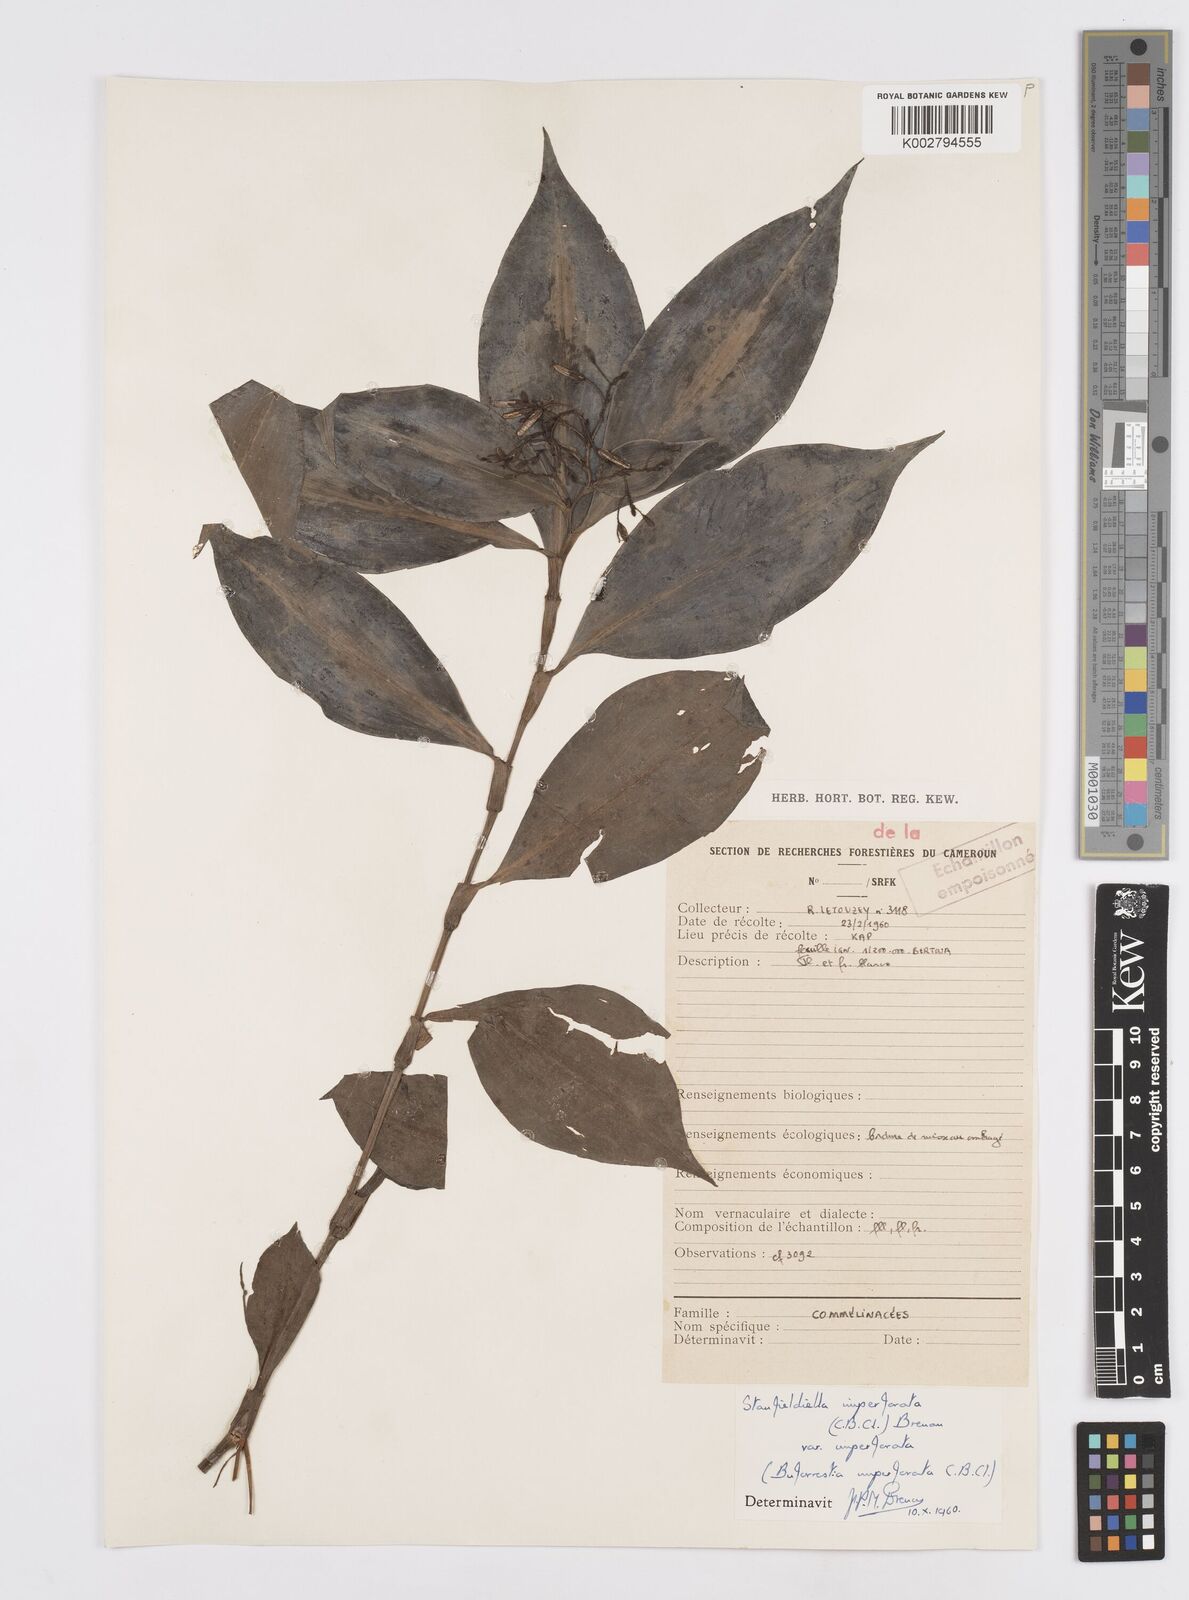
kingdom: Plantae
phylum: Tracheophyta
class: Liliopsida
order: Commelinales
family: Commelinaceae
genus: Stanfieldiella
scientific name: Stanfieldiella imperforata
